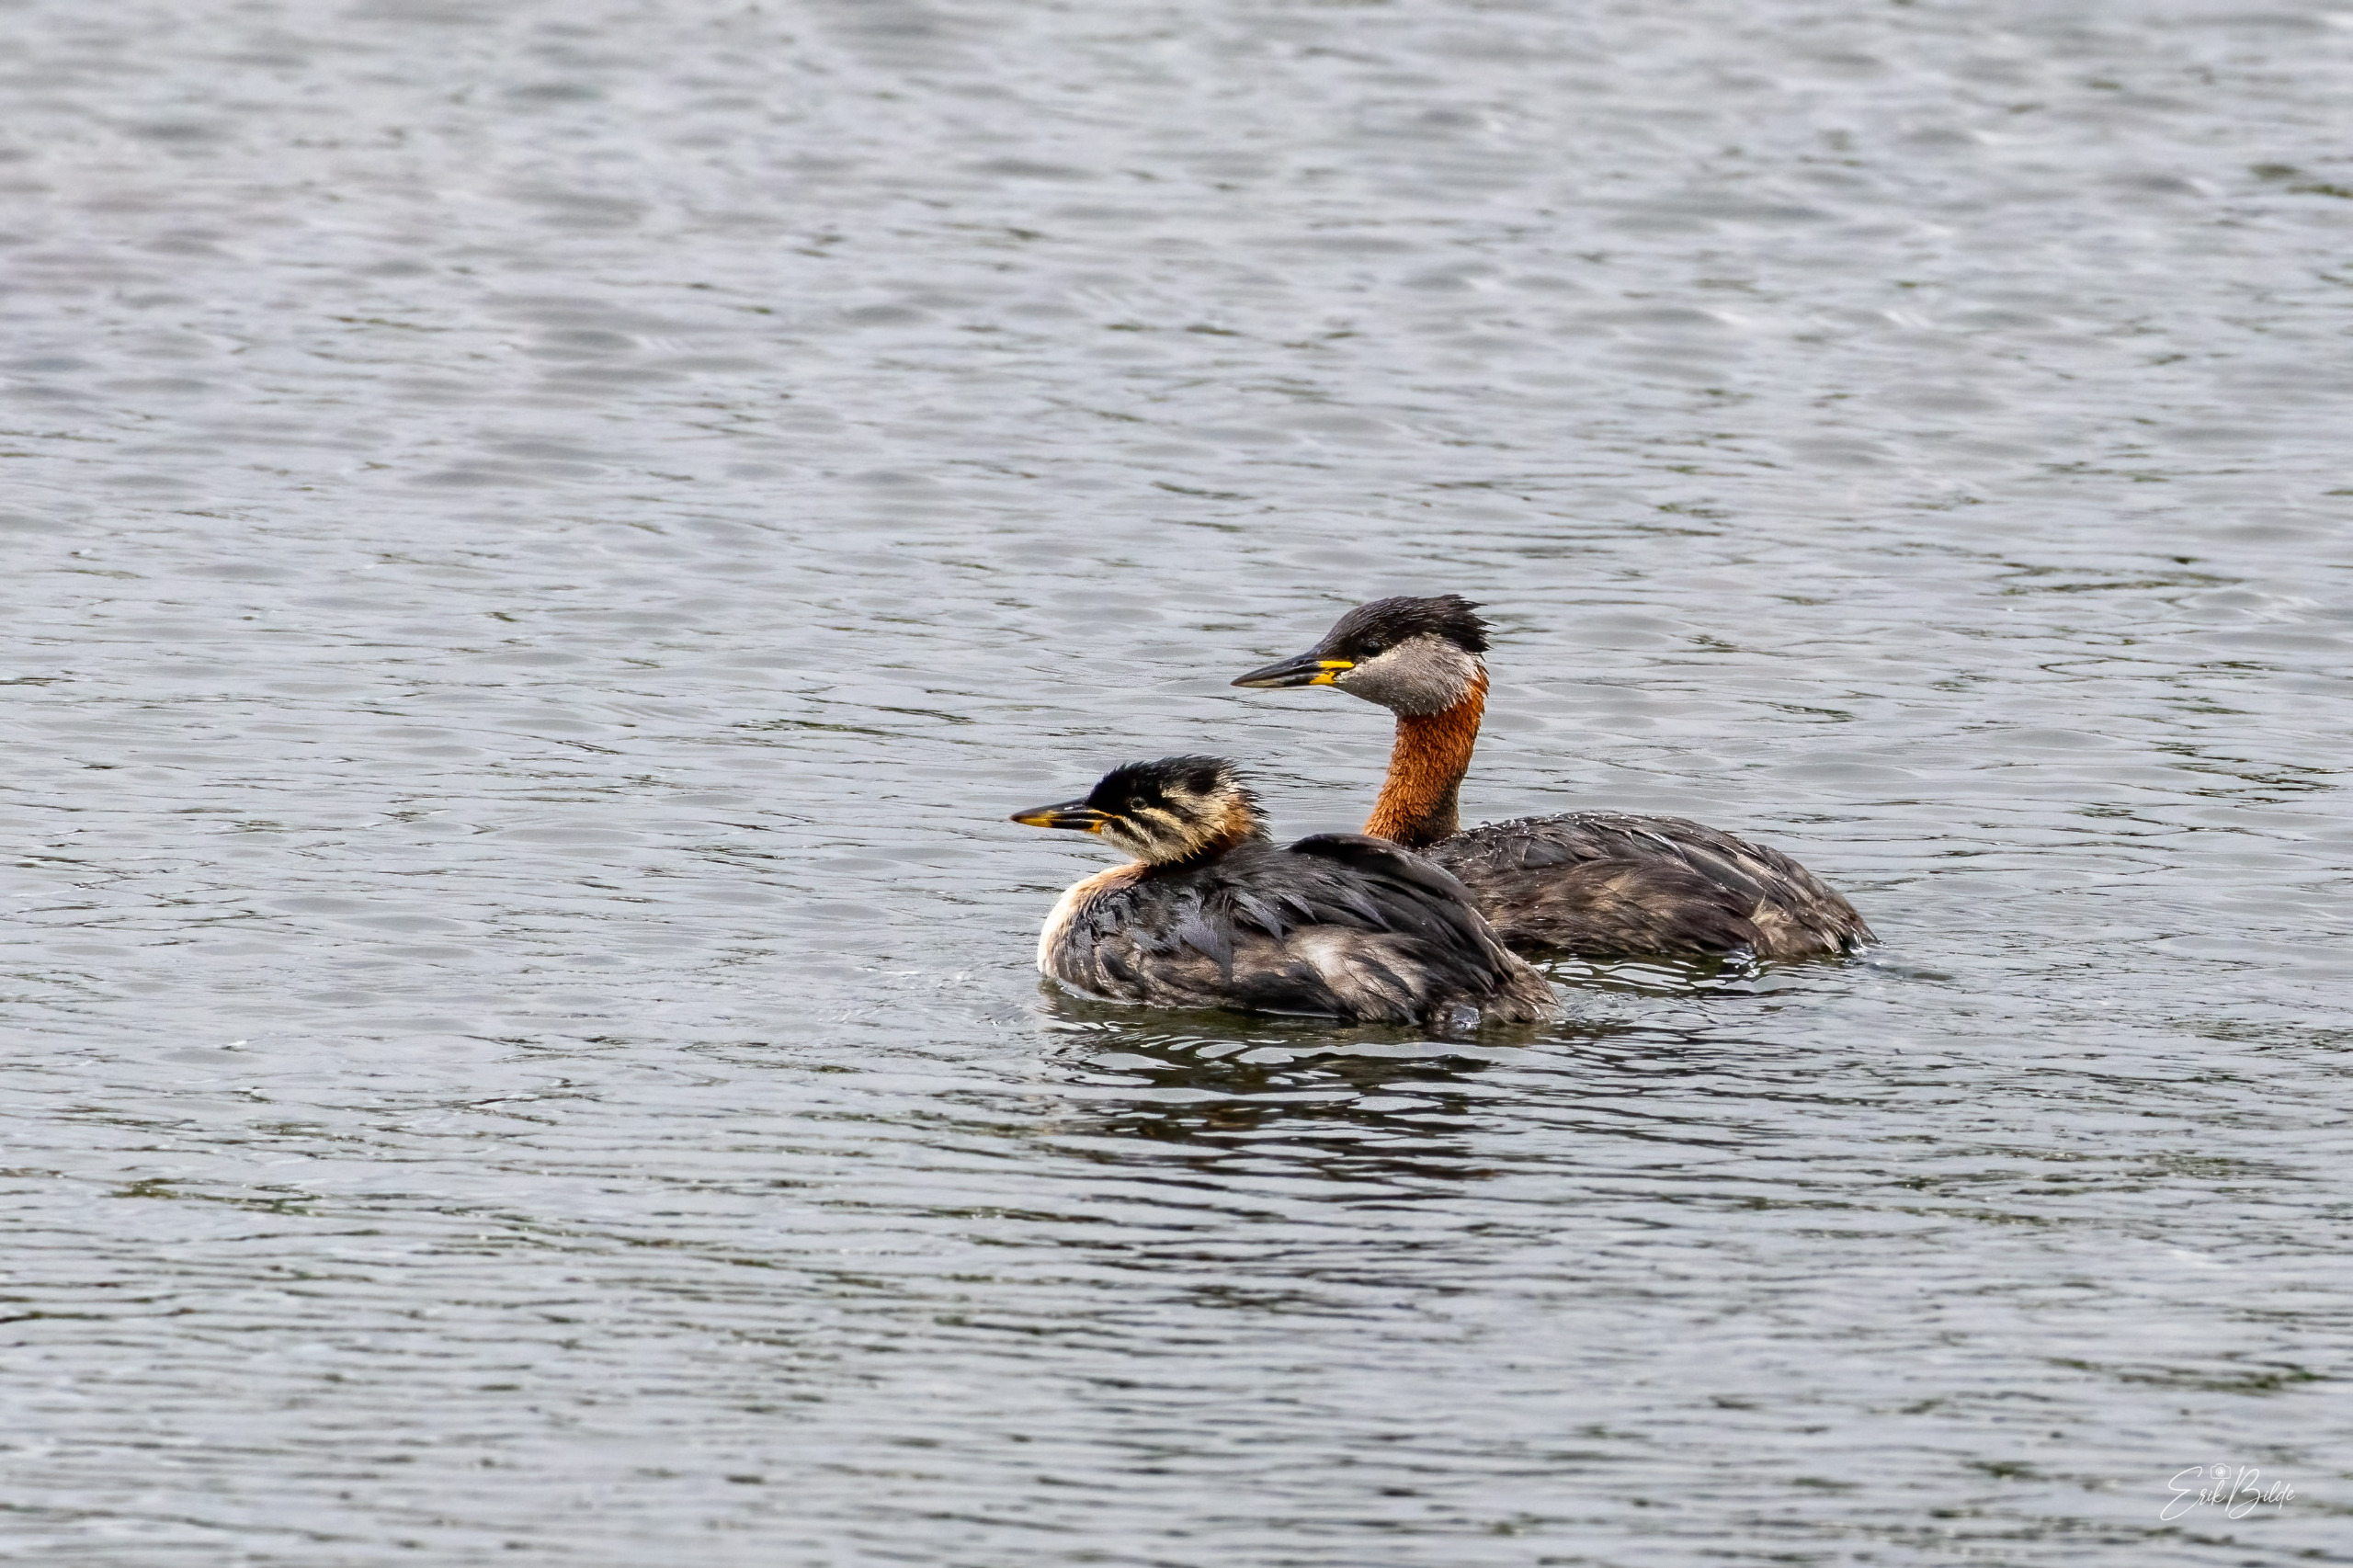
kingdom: Animalia
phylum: Chordata
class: Aves
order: Podicipediformes
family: Podicipedidae
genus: Podiceps
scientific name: Podiceps grisegena
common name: Gråstrubet lappedykker
